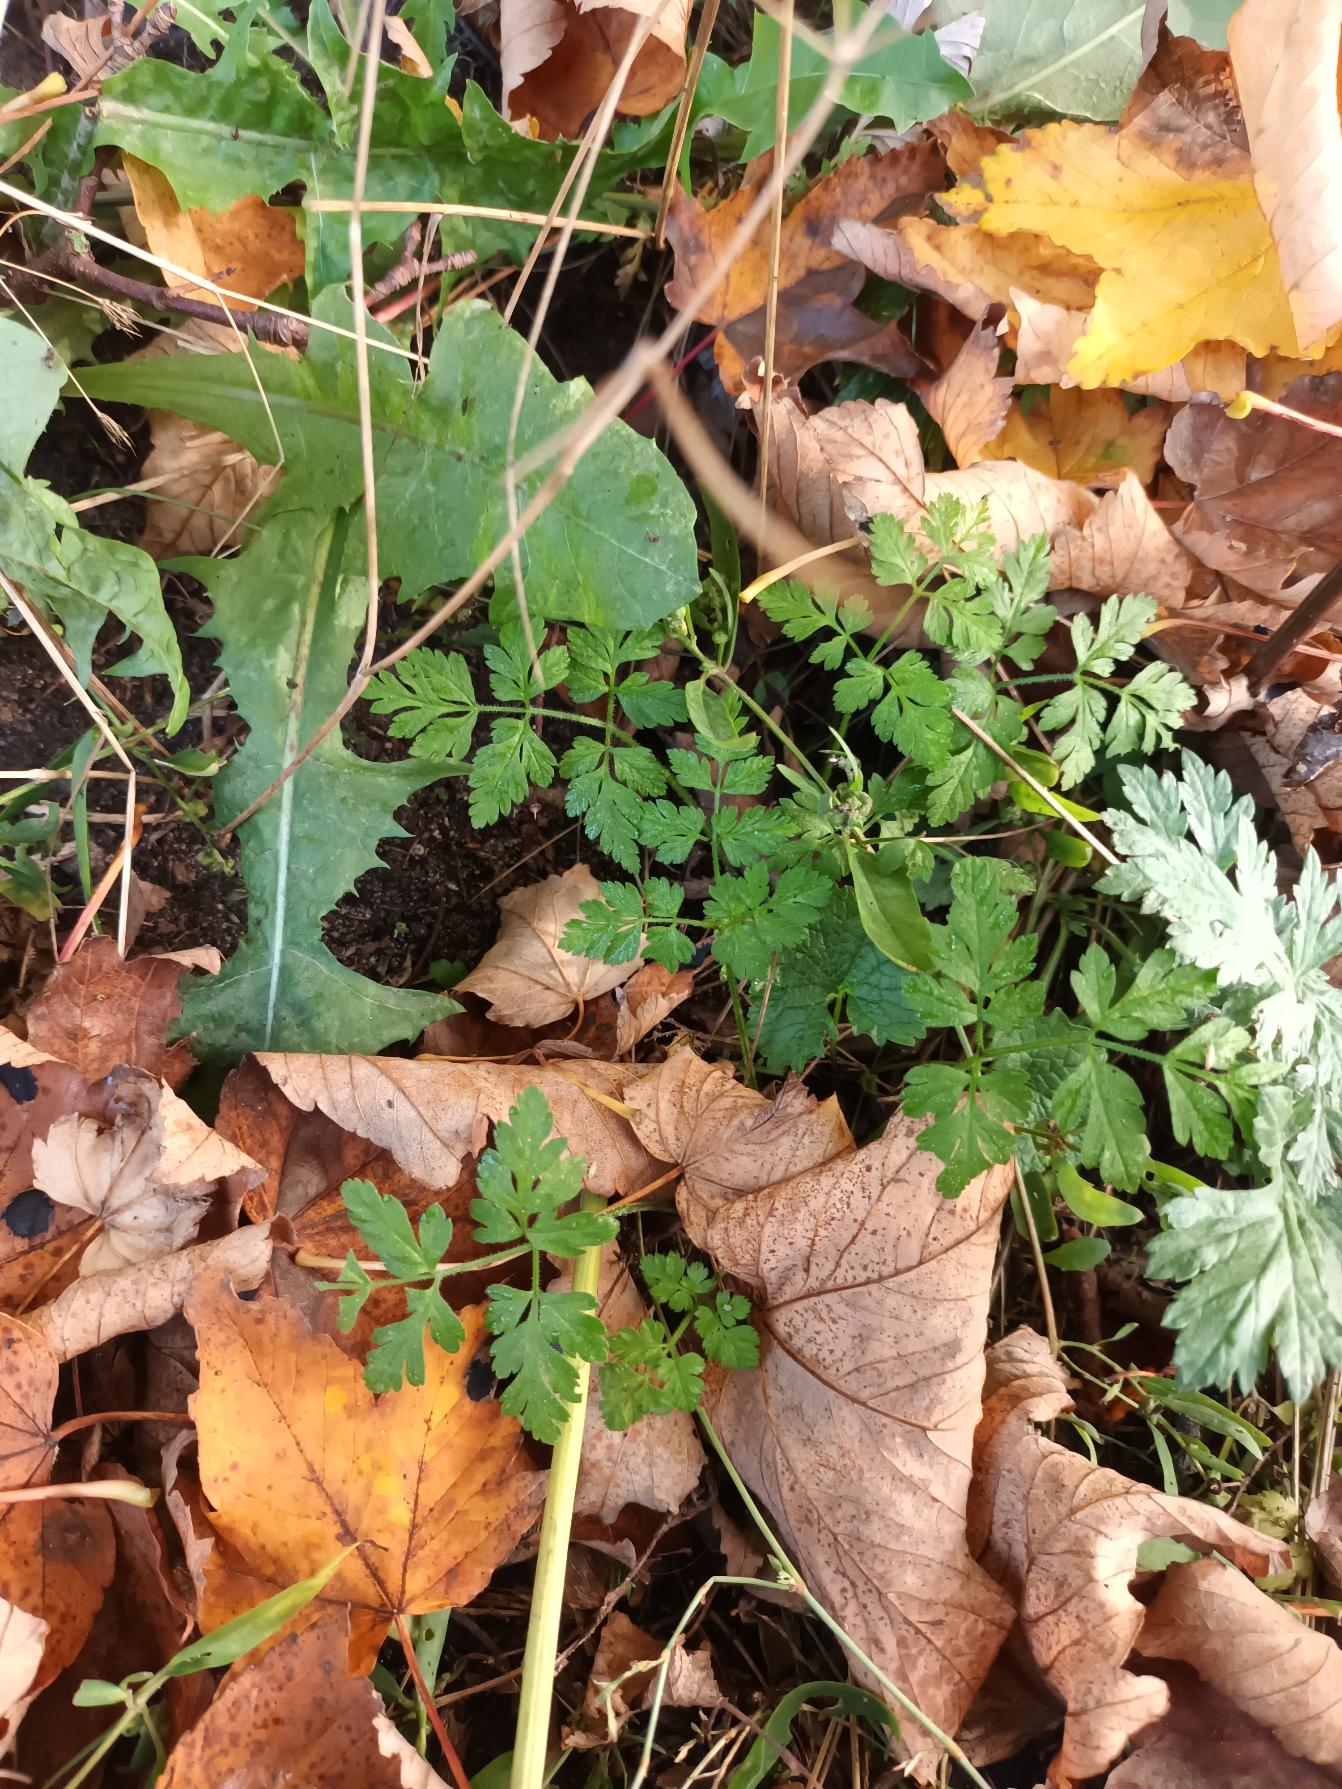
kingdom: Plantae
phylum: Tracheophyta
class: Magnoliopsida
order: Apiales
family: Apiaceae
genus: Chaerophyllum
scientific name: Chaerophyllum temulum
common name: Almindelig hulsvøb
